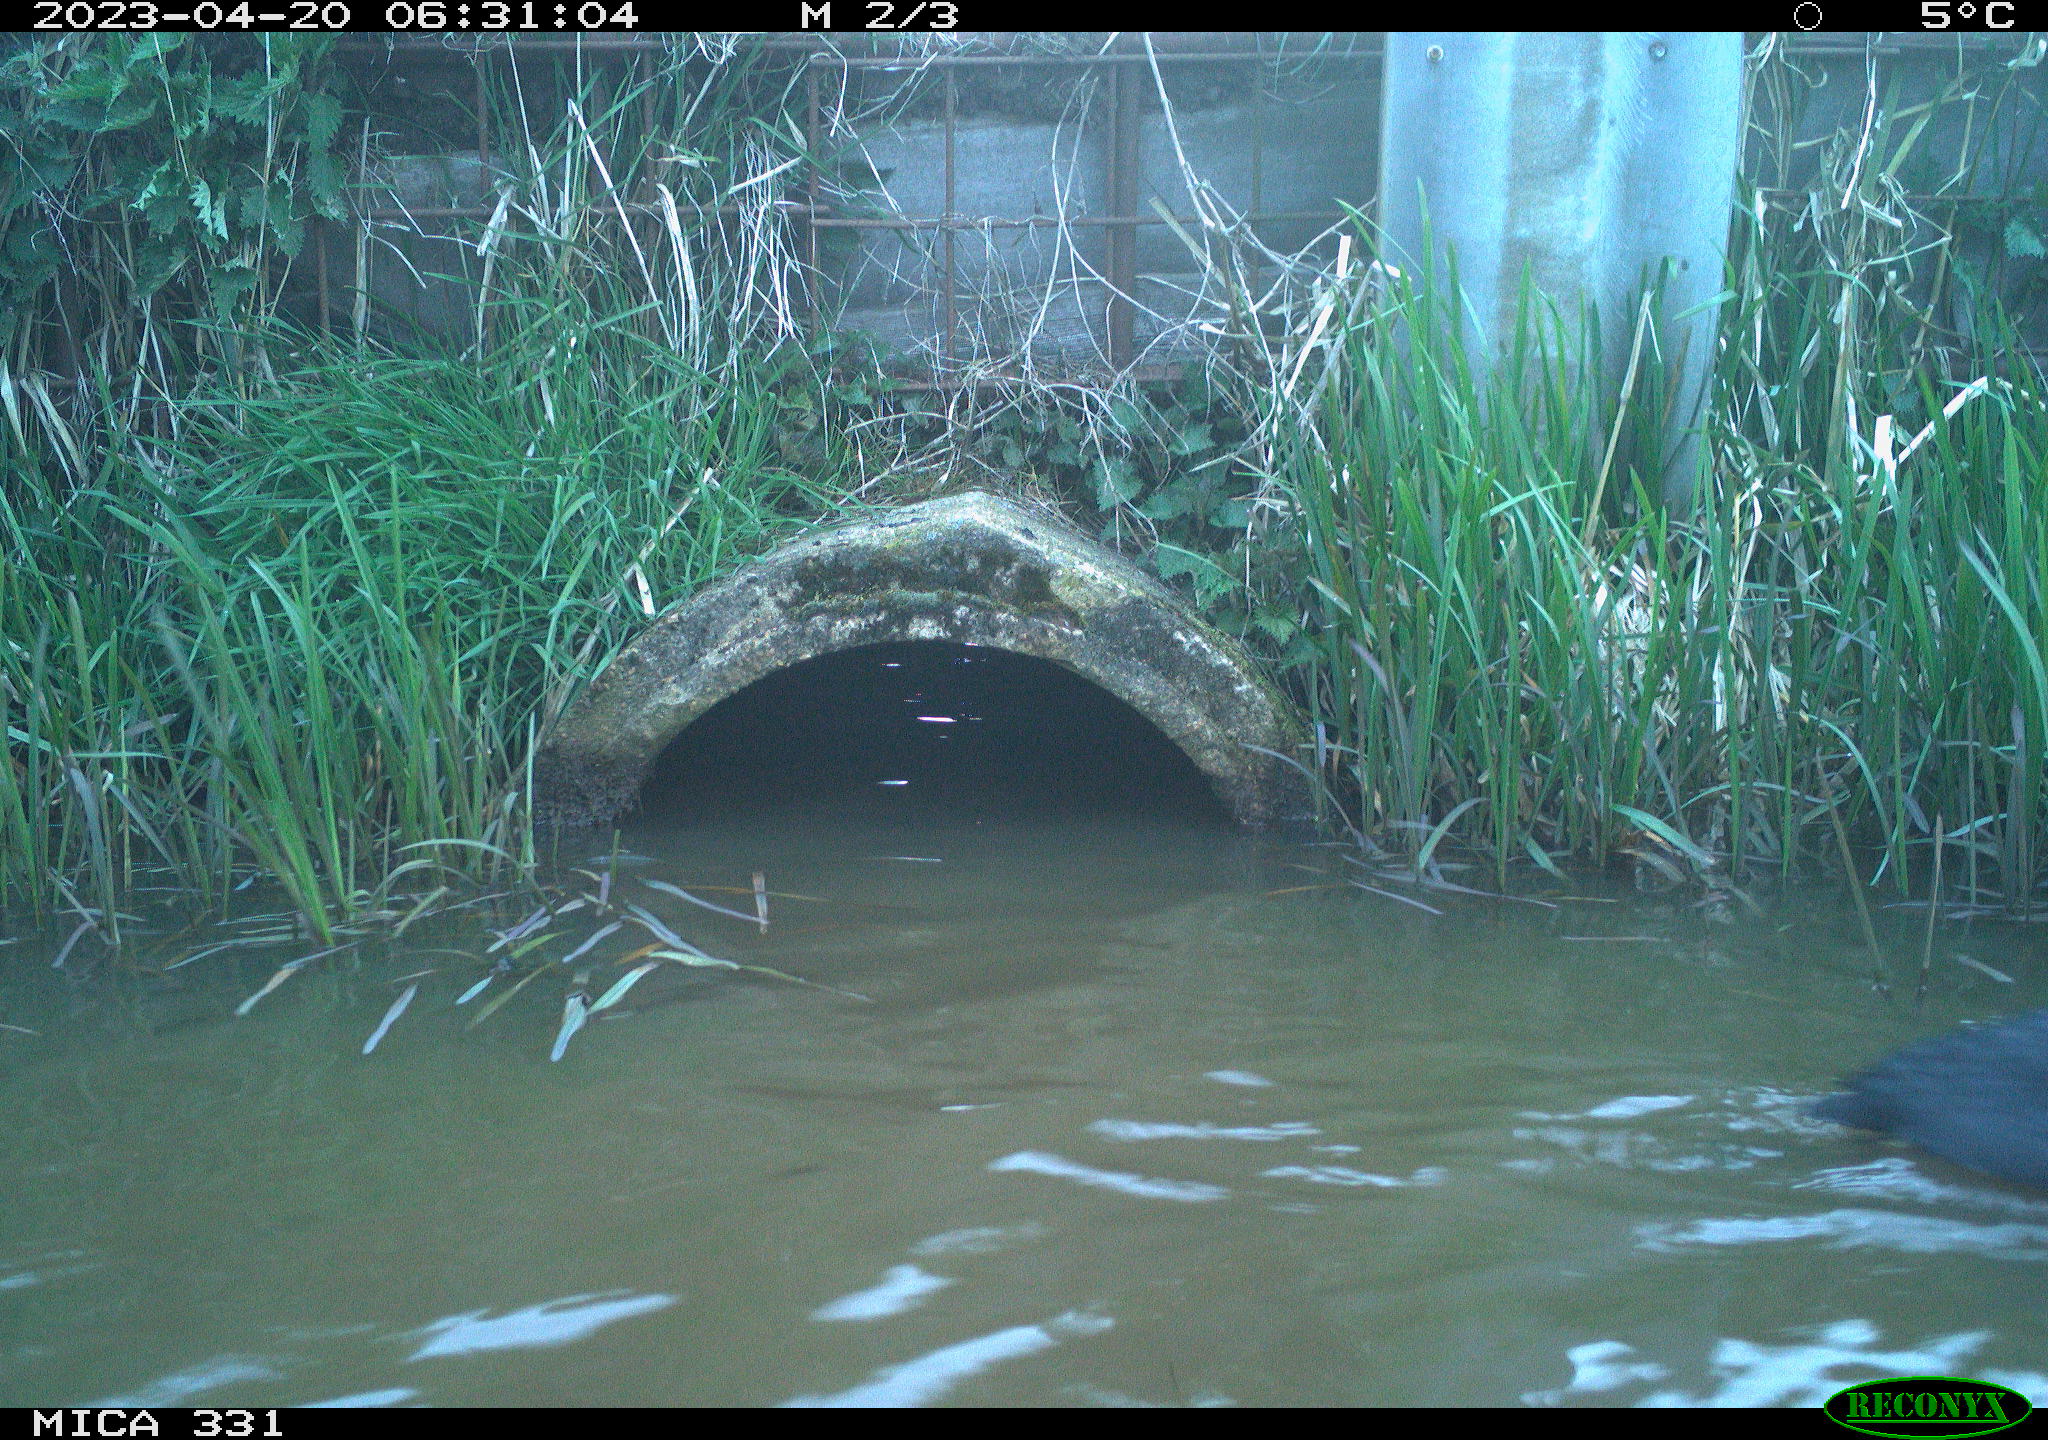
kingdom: Animalia
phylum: Chordata
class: Aves
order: Gruiformes
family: Rallidae
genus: Fulica
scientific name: Fulica atra
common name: Eurasian coot
